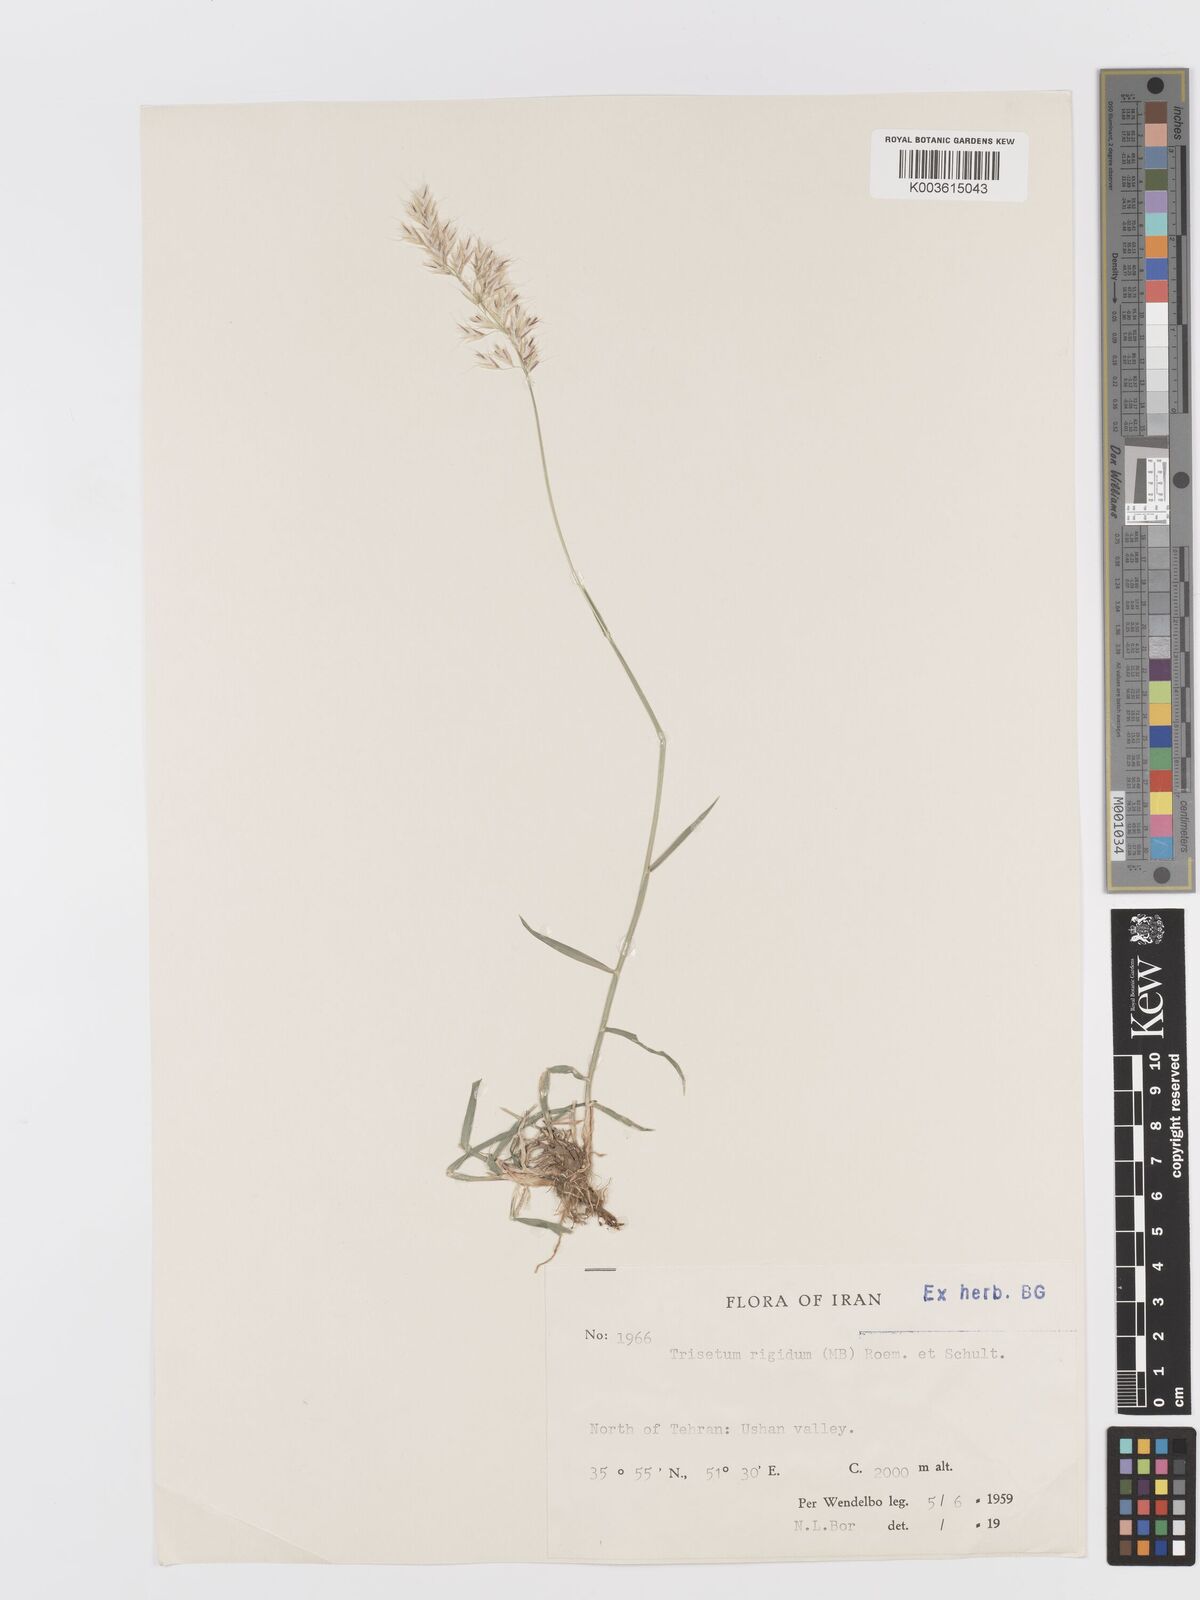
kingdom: Plantae
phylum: Tracheophyta
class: Liliopsida
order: Poales
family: Poaceae
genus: Trisetum
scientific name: Trisetum rigidum
